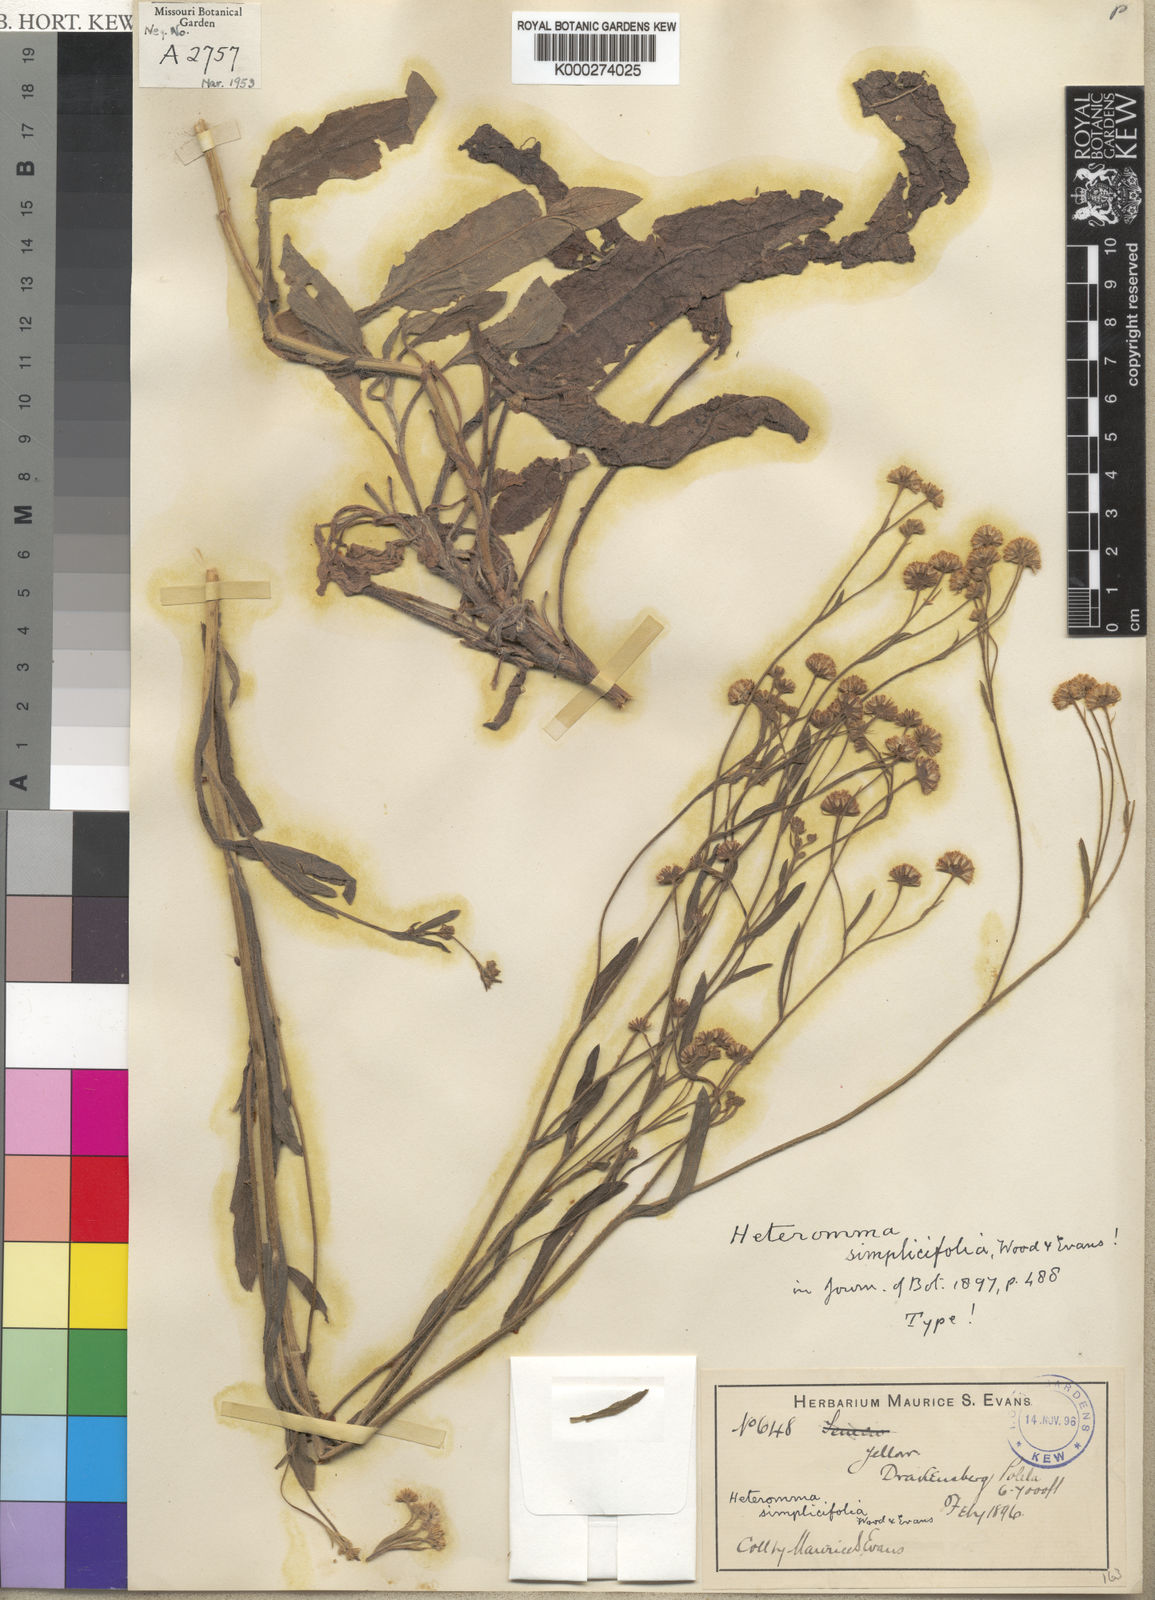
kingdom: Plantae
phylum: Tracheophyta
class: Magnoliopsida
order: Asterales
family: Asteraceae
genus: Heteromma
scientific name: Heteromma simplicifolia
